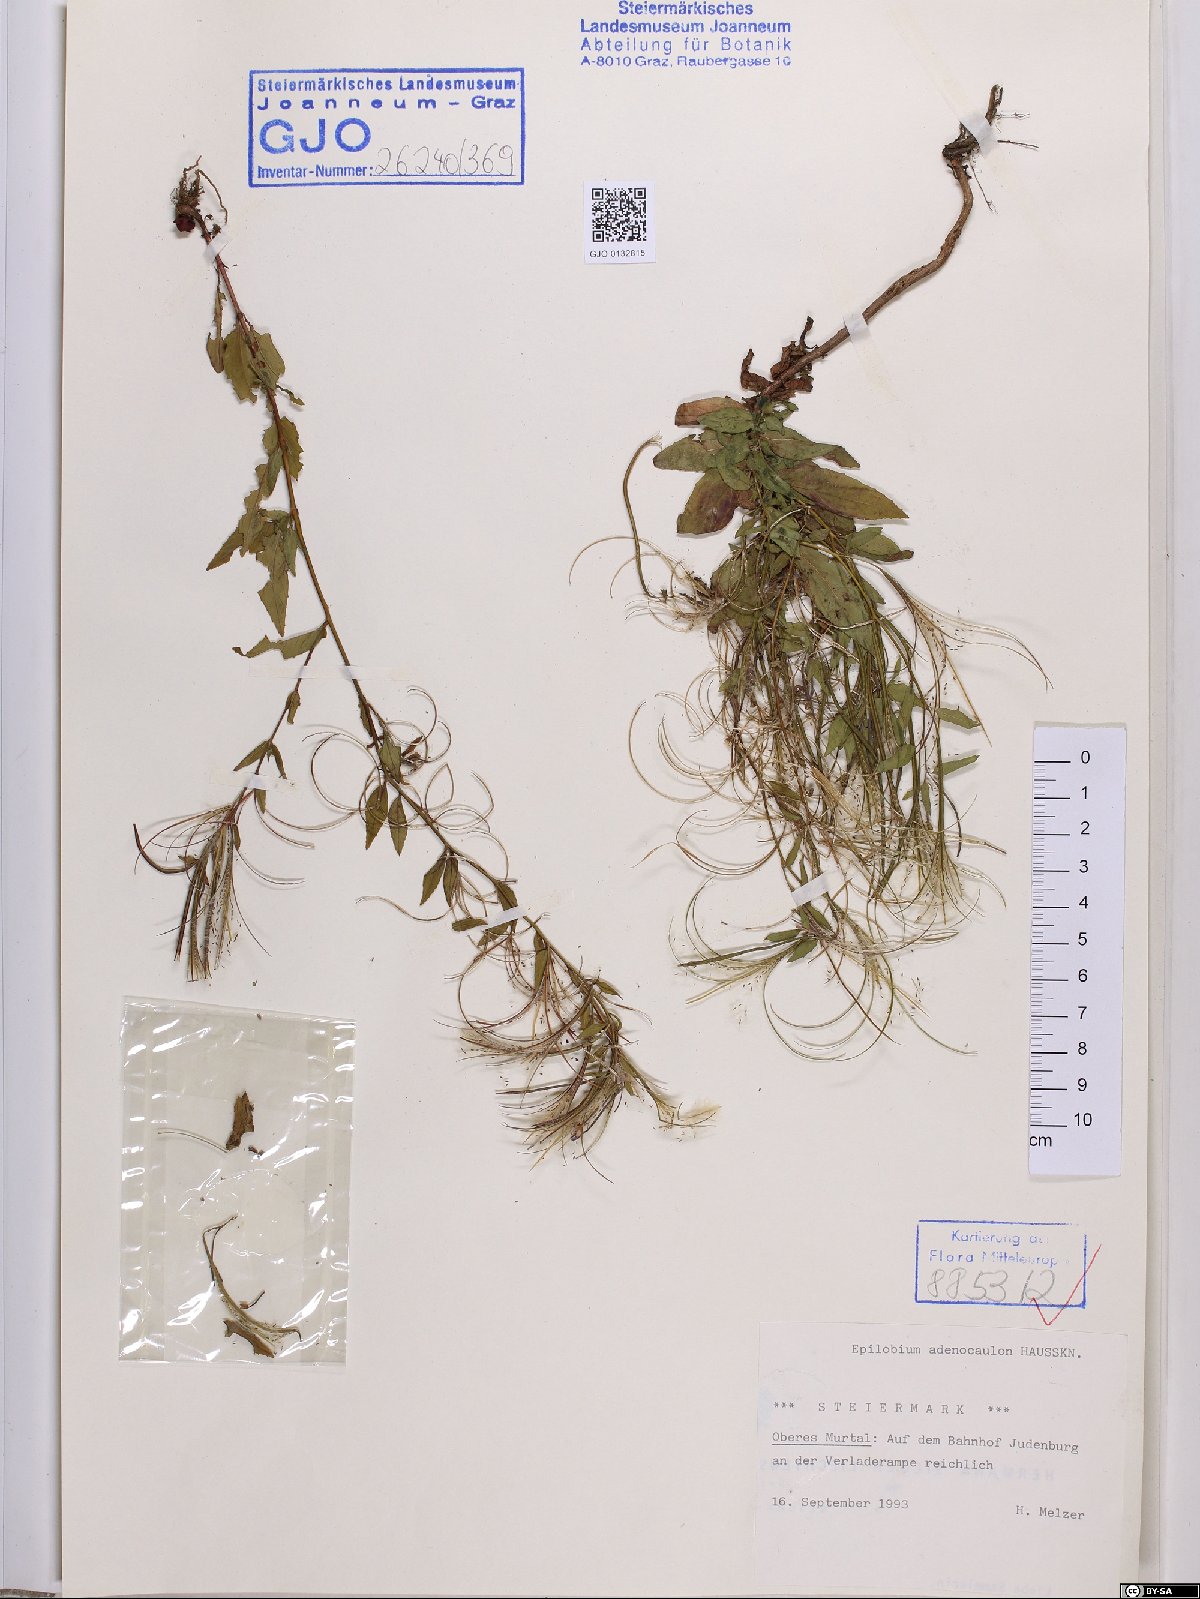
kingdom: Plantae
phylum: Tracheophyta
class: Magnoliopsida
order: Myrtales
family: Onagraceae
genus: Epilobium
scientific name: Epilobium ciliatum
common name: American willowherb
